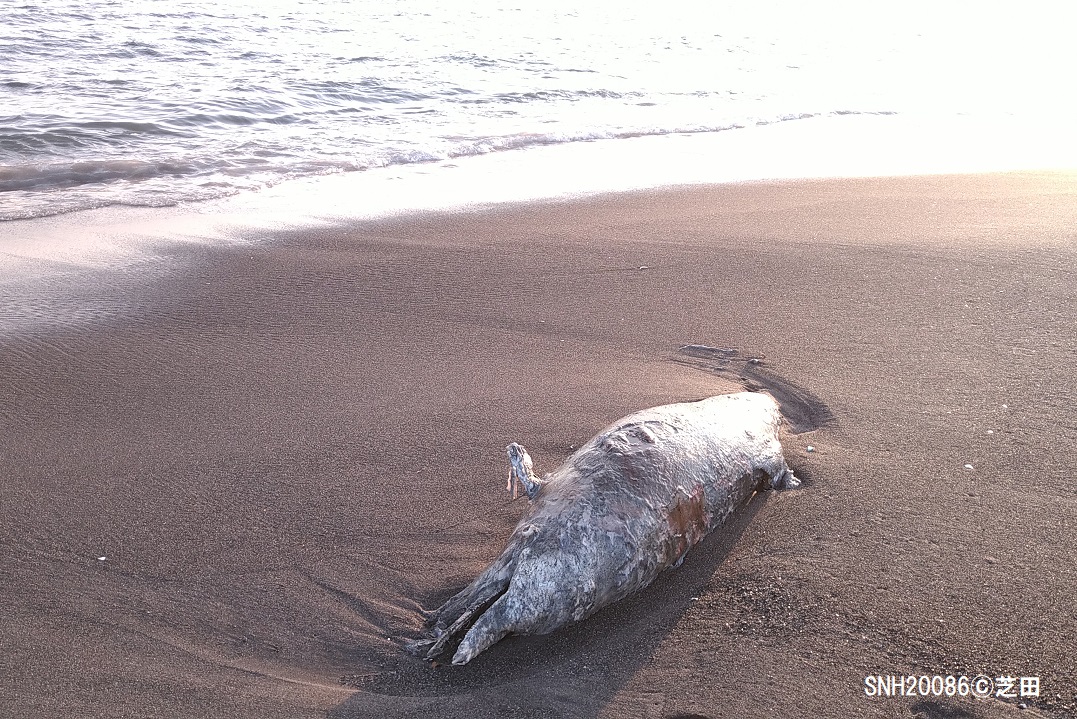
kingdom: Animalia
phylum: Chordata
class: Mammalia
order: Cetacea
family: Delphinidae
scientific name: Delphinidae
